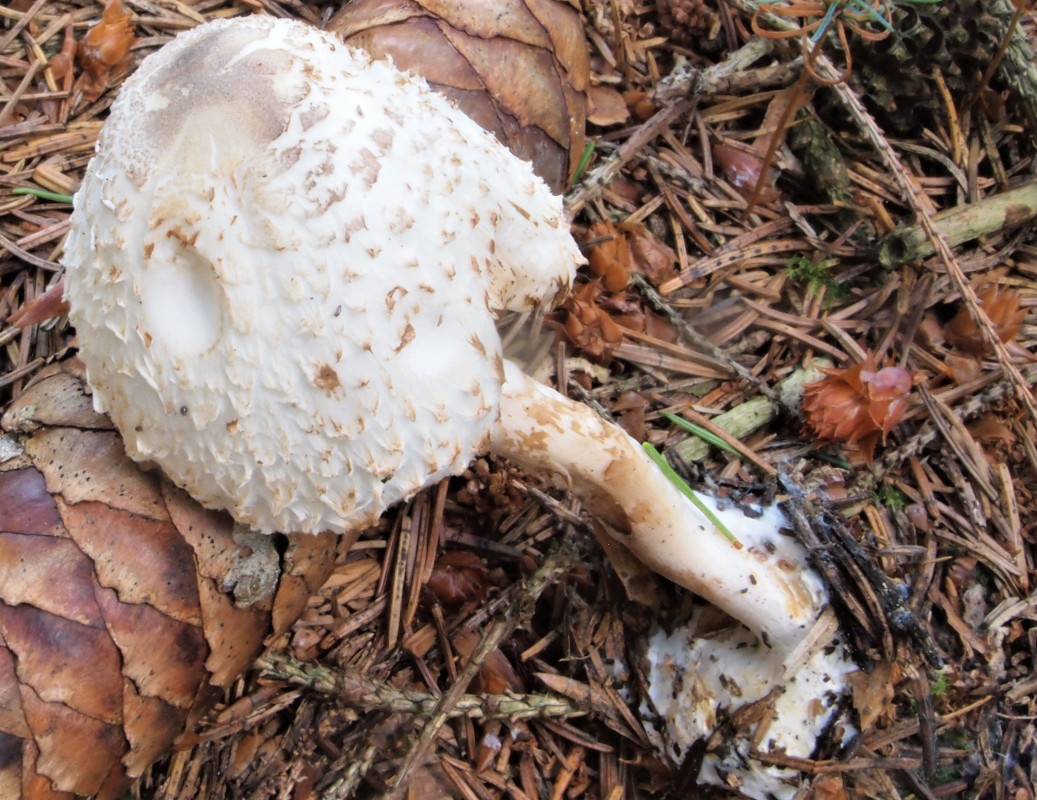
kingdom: Fungi
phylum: Basidiomycota
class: Agaricomycetes
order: Agaricales
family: Agaricaceae
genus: Leucoagaricus
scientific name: Leucoagaricus nympharum
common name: gran-silkehat
